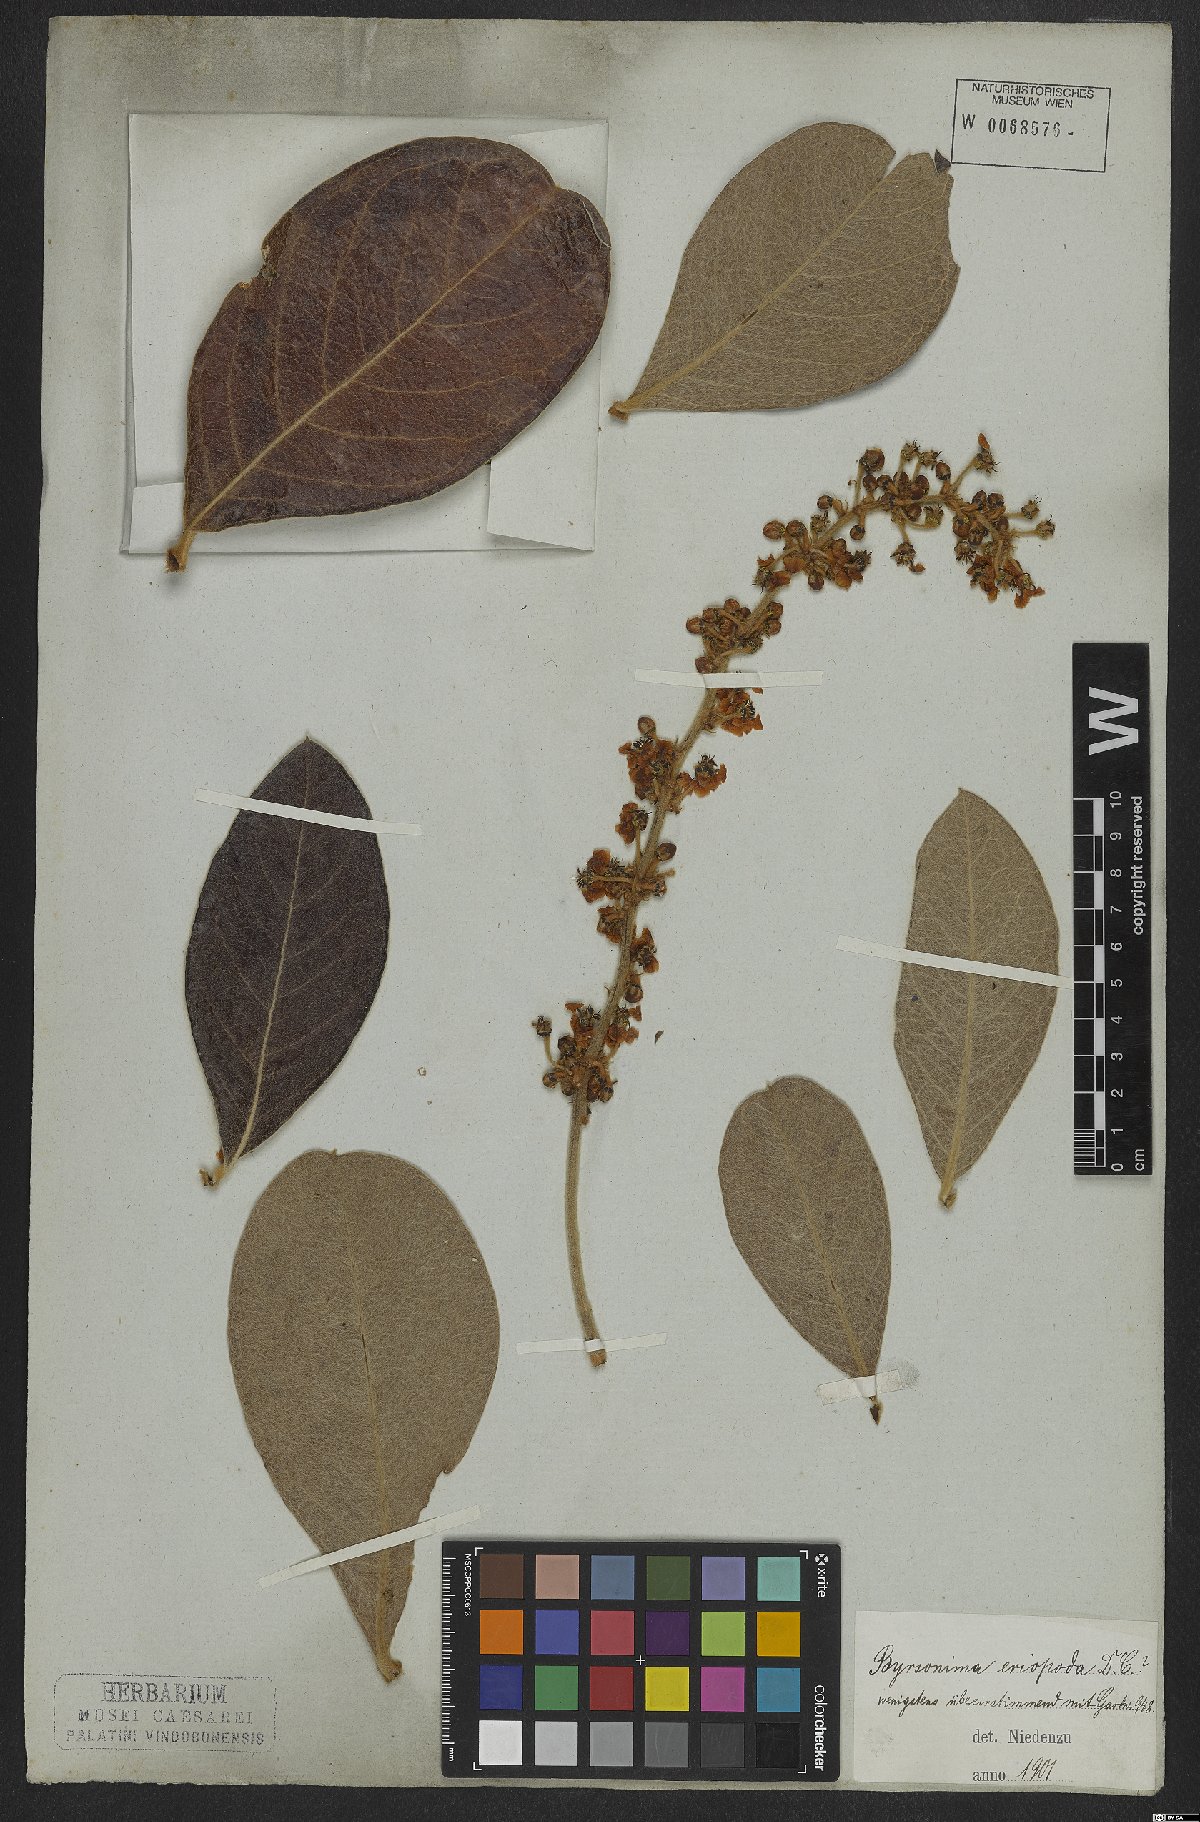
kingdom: Plantae
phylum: Tracheophyta
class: Magnoliopsida
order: Malpighiales
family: Malpighiaceae
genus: Byrsonima
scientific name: Byrsonima eriopoda
